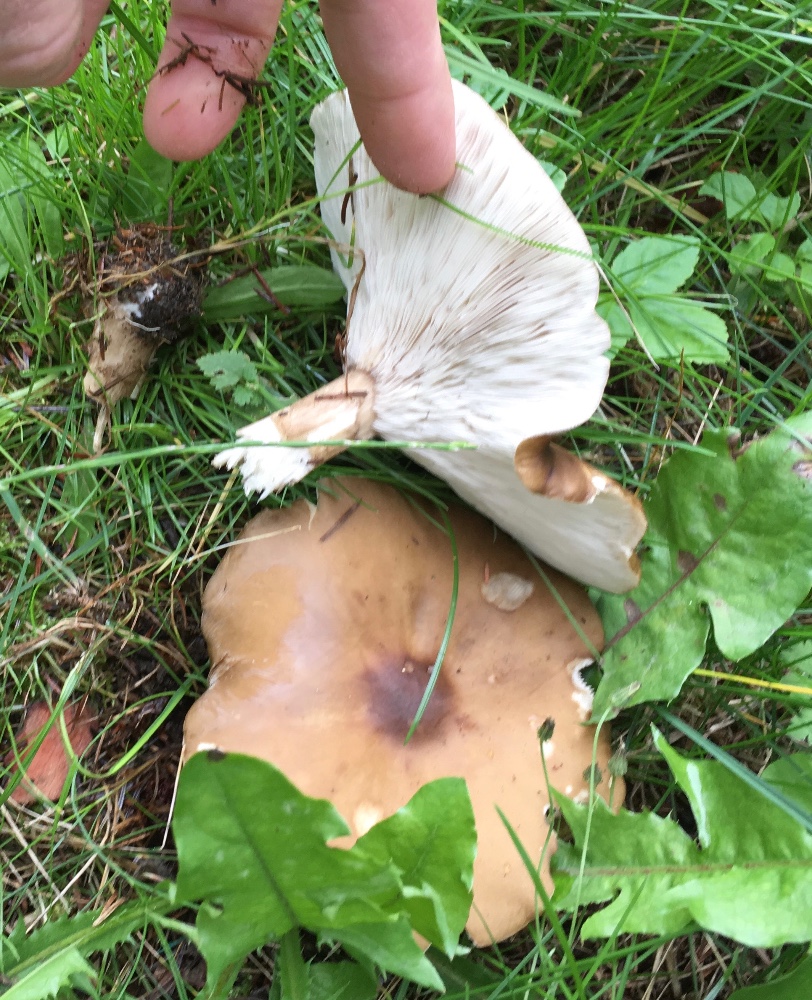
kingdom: Fungi
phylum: Basidiomycota
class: Agaricomycetes
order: Agaricales
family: Tricholomataceae
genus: Melanoleuca
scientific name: Melanoleuca grammopodia
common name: stribestokket munkehat
